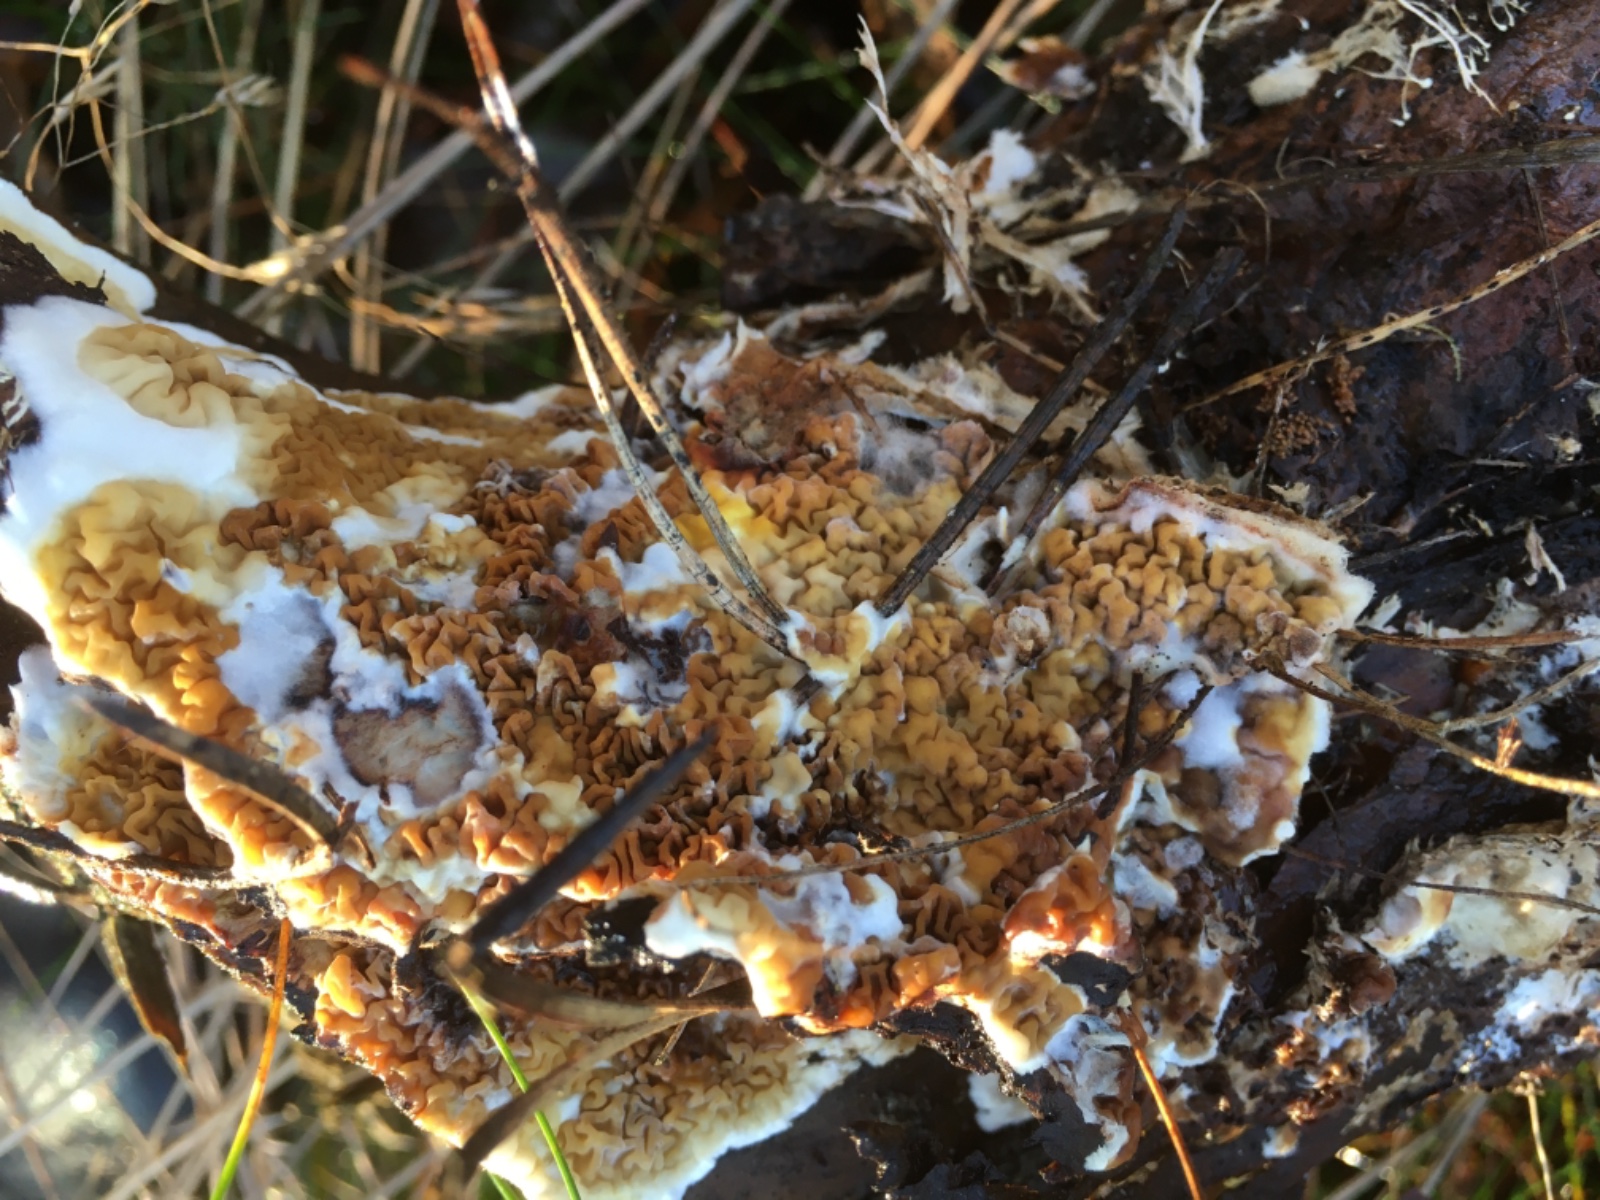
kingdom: Fungi
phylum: Basidiomycota
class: Agaricomycetes
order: Boletales
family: Serpulaceae
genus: Serpula
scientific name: Serpula himantioides
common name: tyndkødet hussvamp
